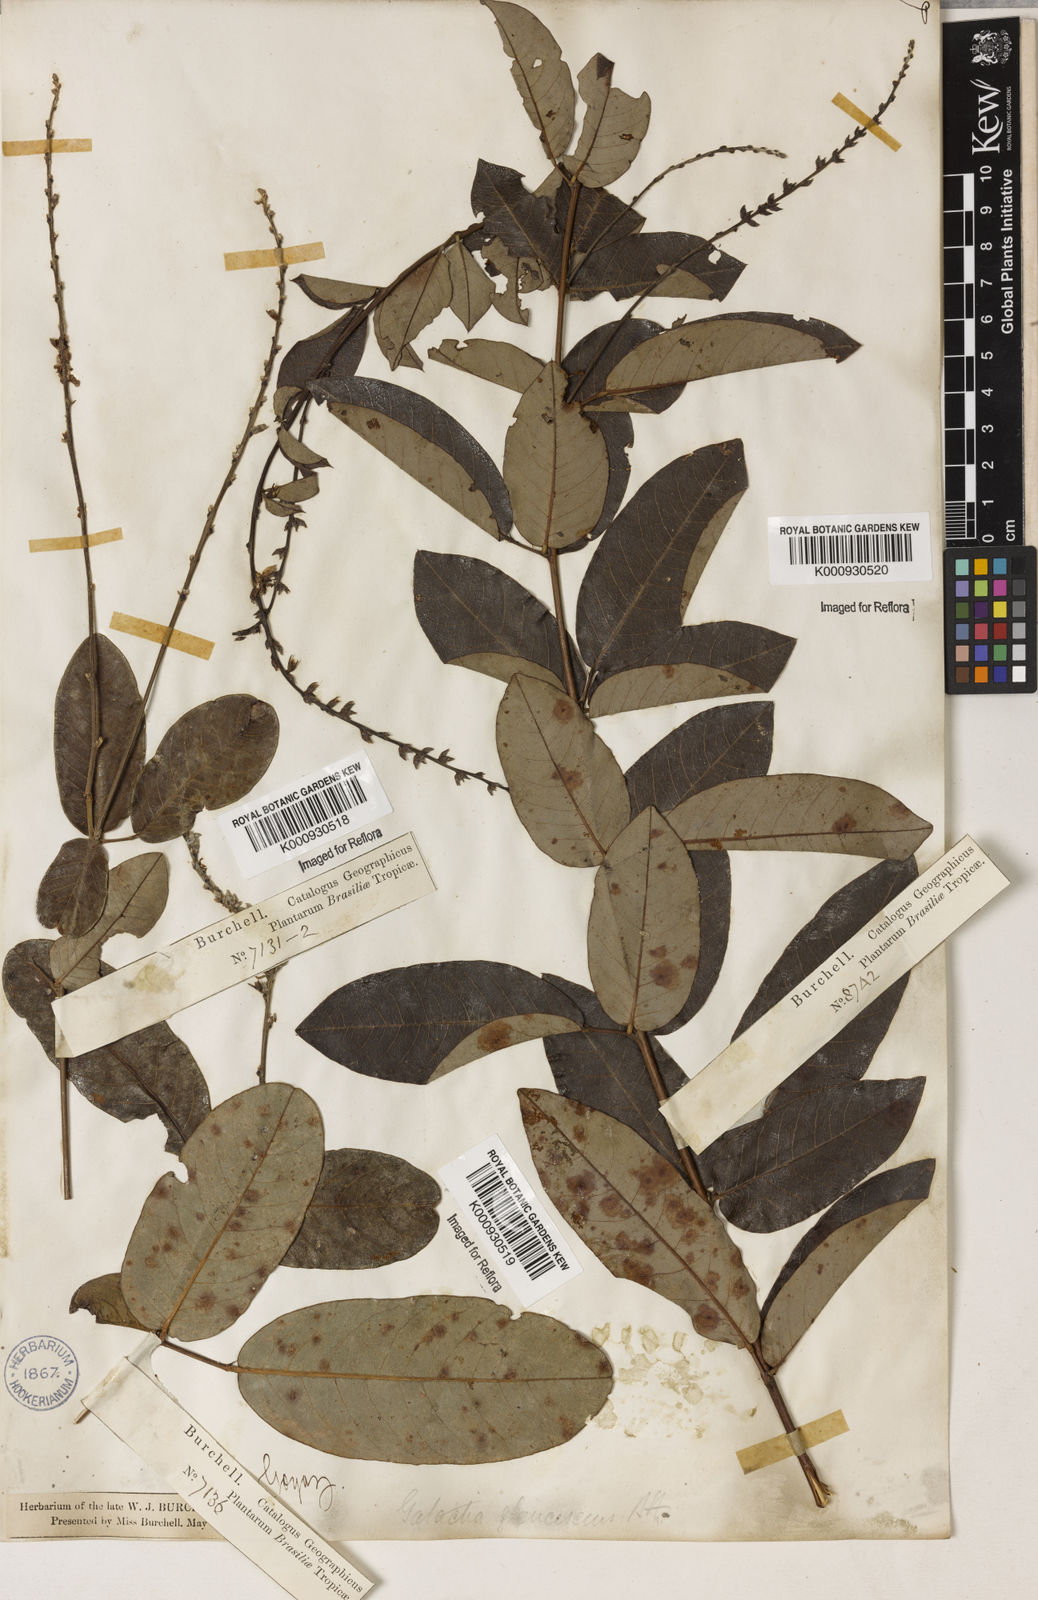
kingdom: Plantae
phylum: Tracheophyta
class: Magnoliopsida
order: Fabales
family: Fabaceae
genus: Galactia
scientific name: Galactia glaucescens
